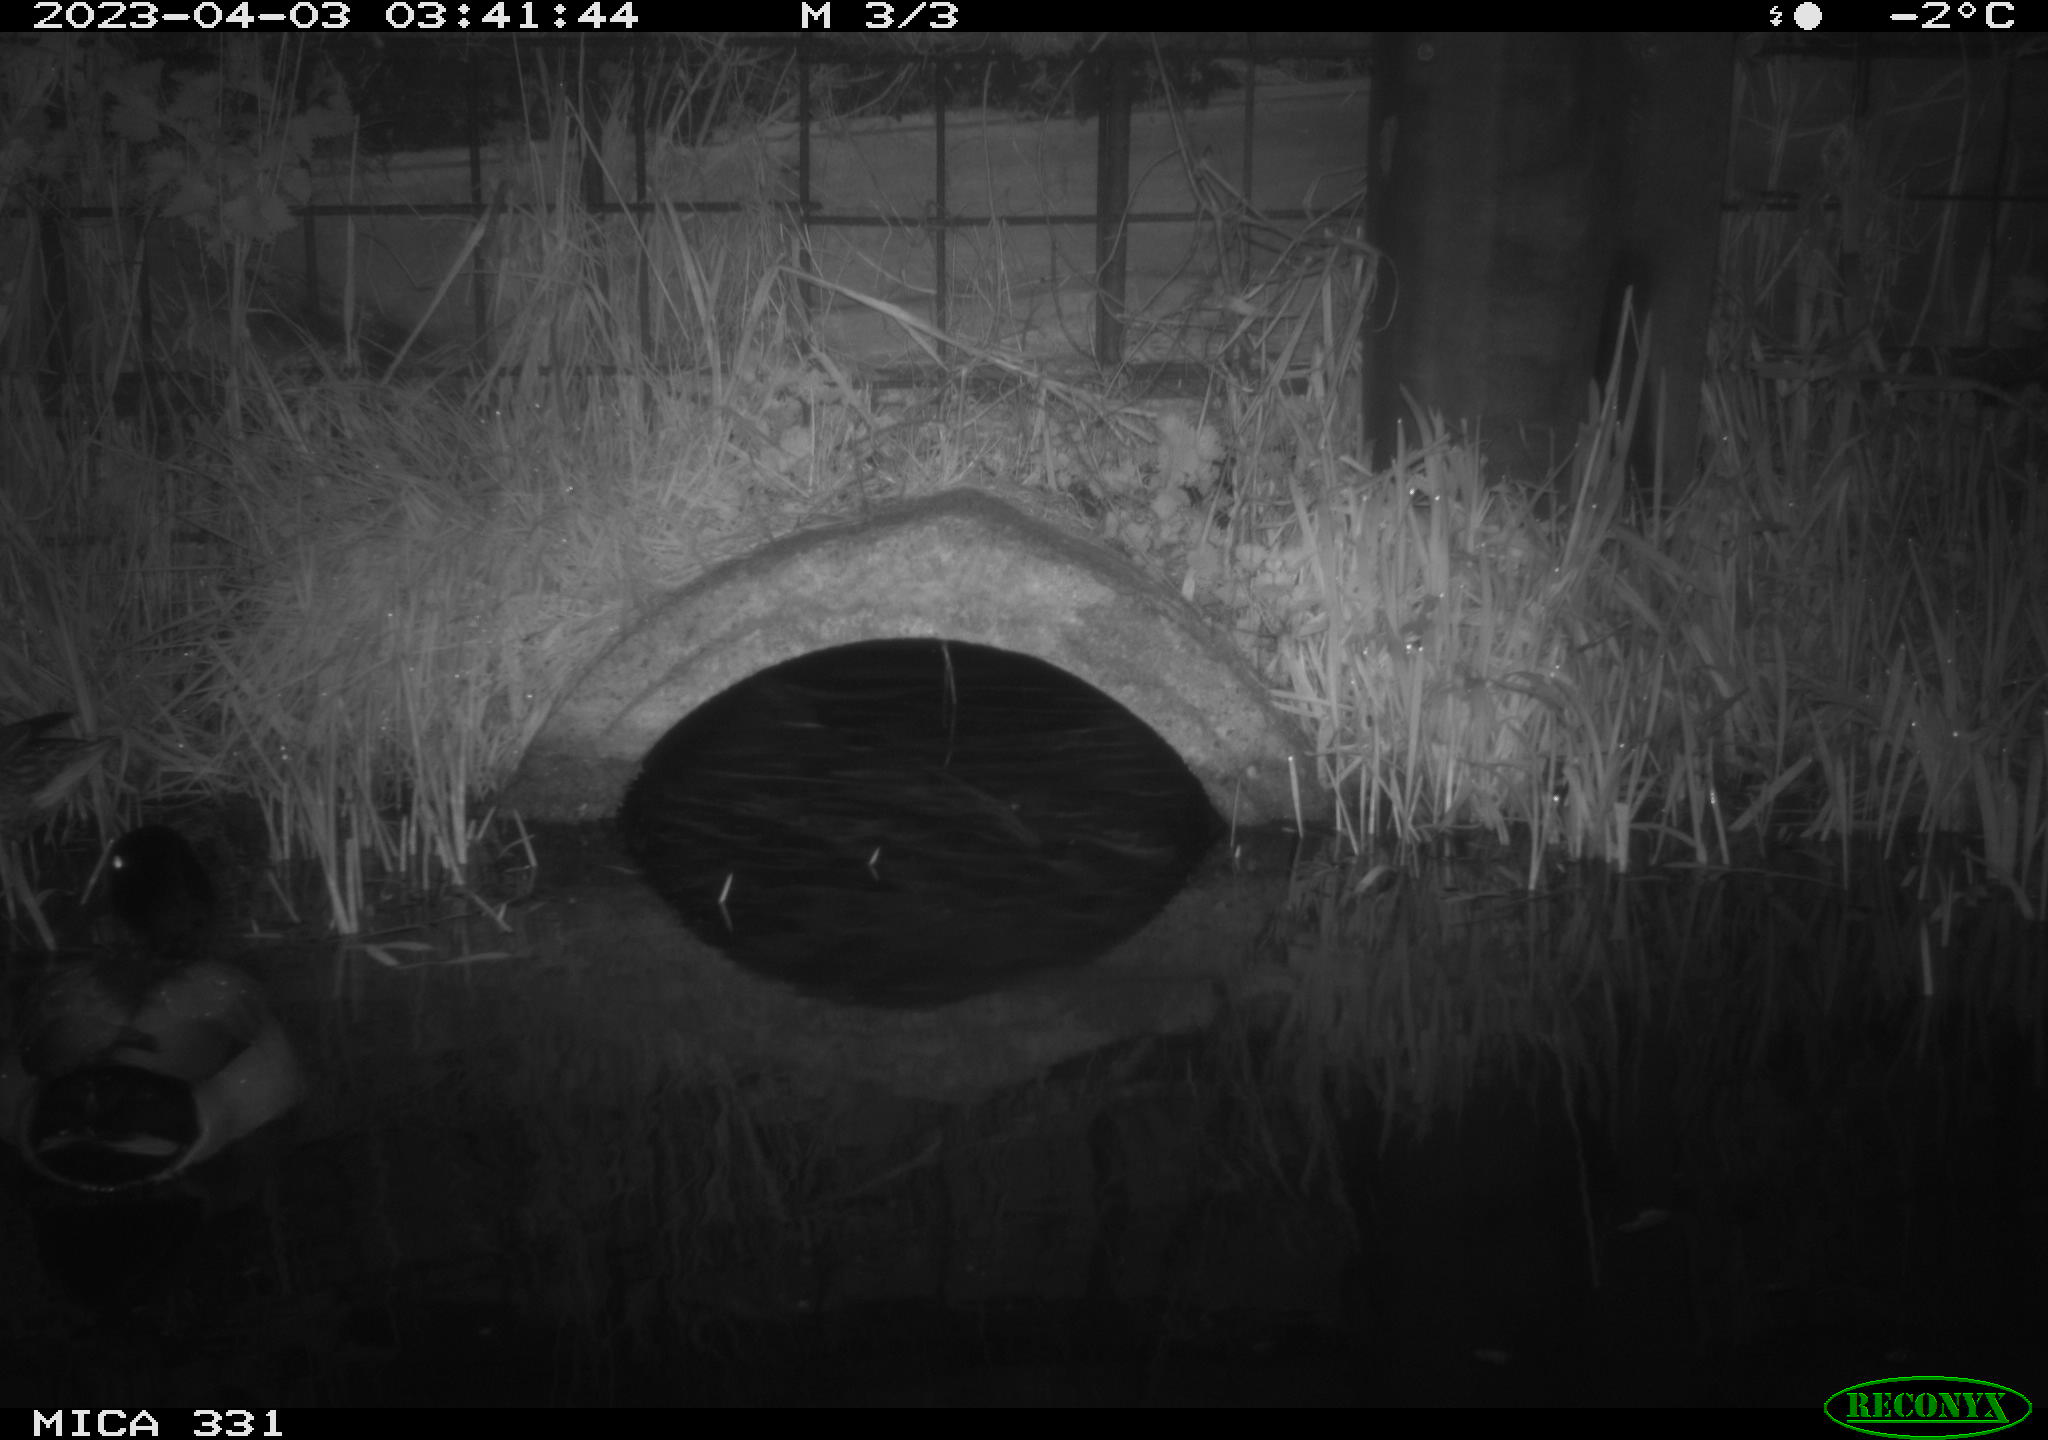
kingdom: Animalia
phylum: Chordata
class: Aves
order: Anseriformes
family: Anatidae
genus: Anas
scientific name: Anas
